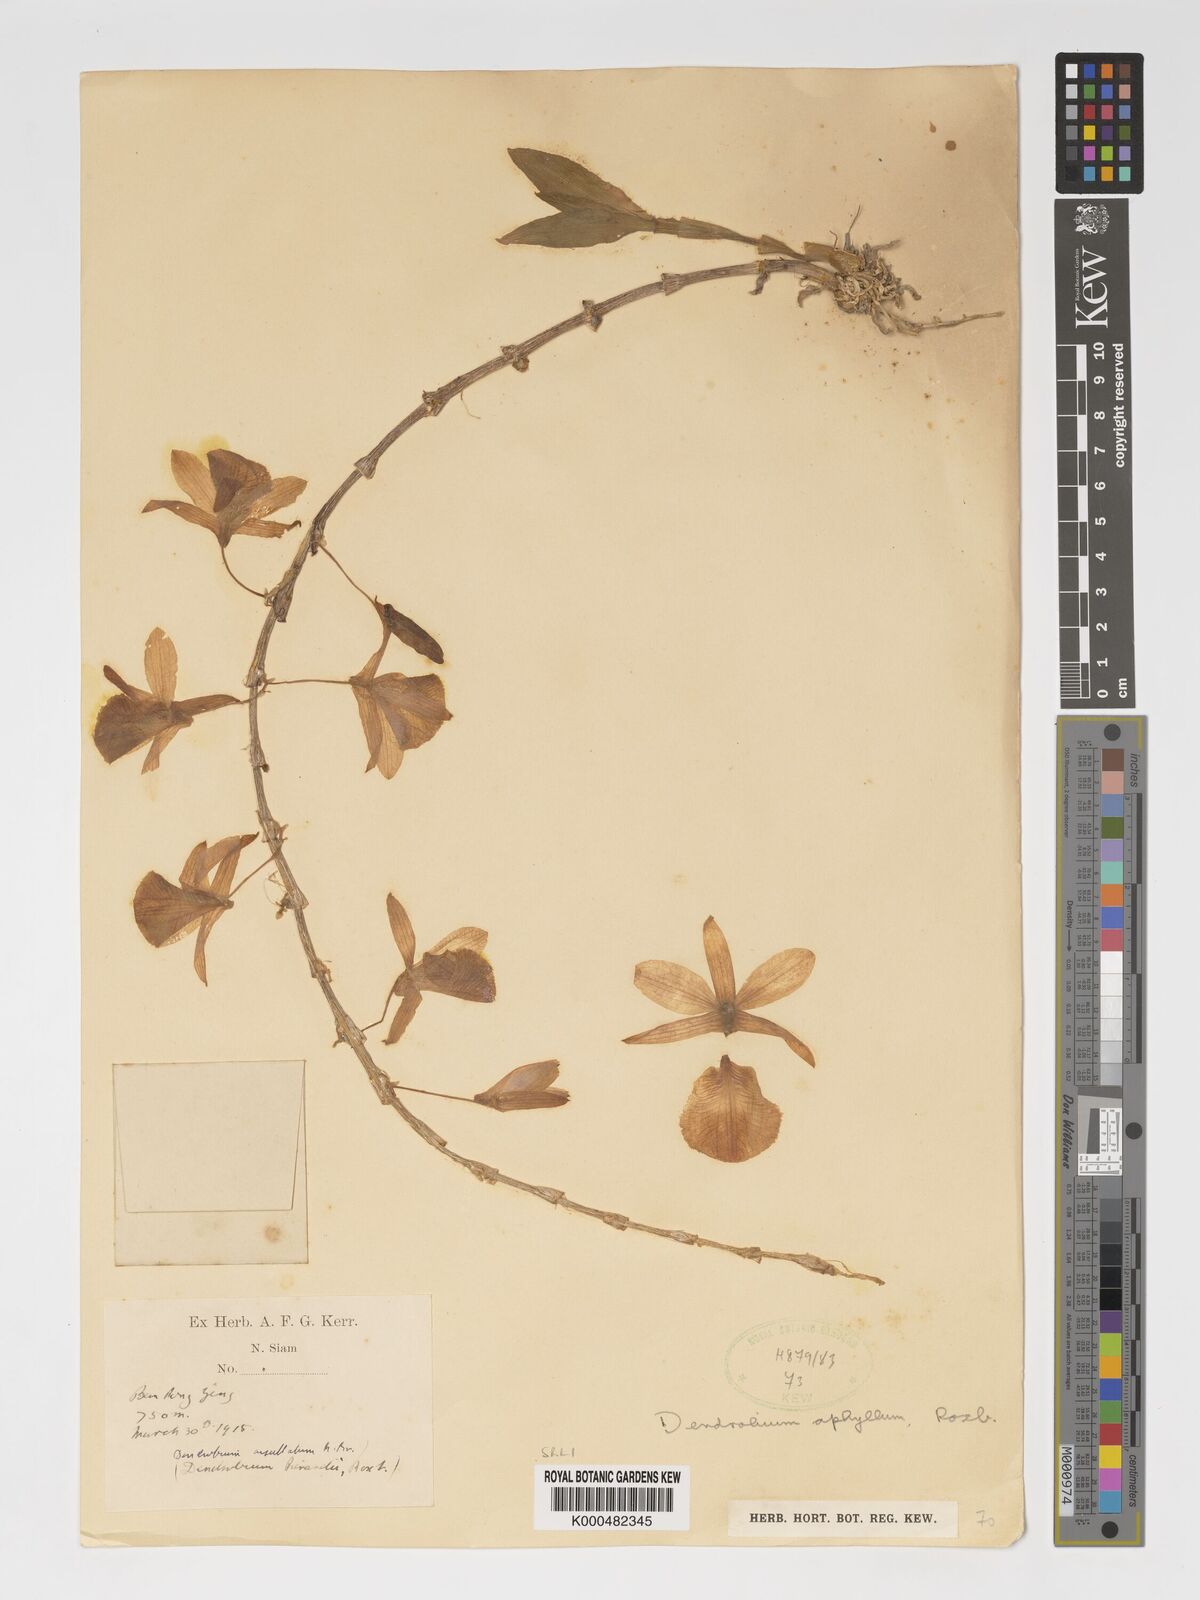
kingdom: Plantae
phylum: Tracheophyta
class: Liliopsida
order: Asparagales
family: Orchidaceae
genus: Dendrobium
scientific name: Dendrobium macrostachyum
